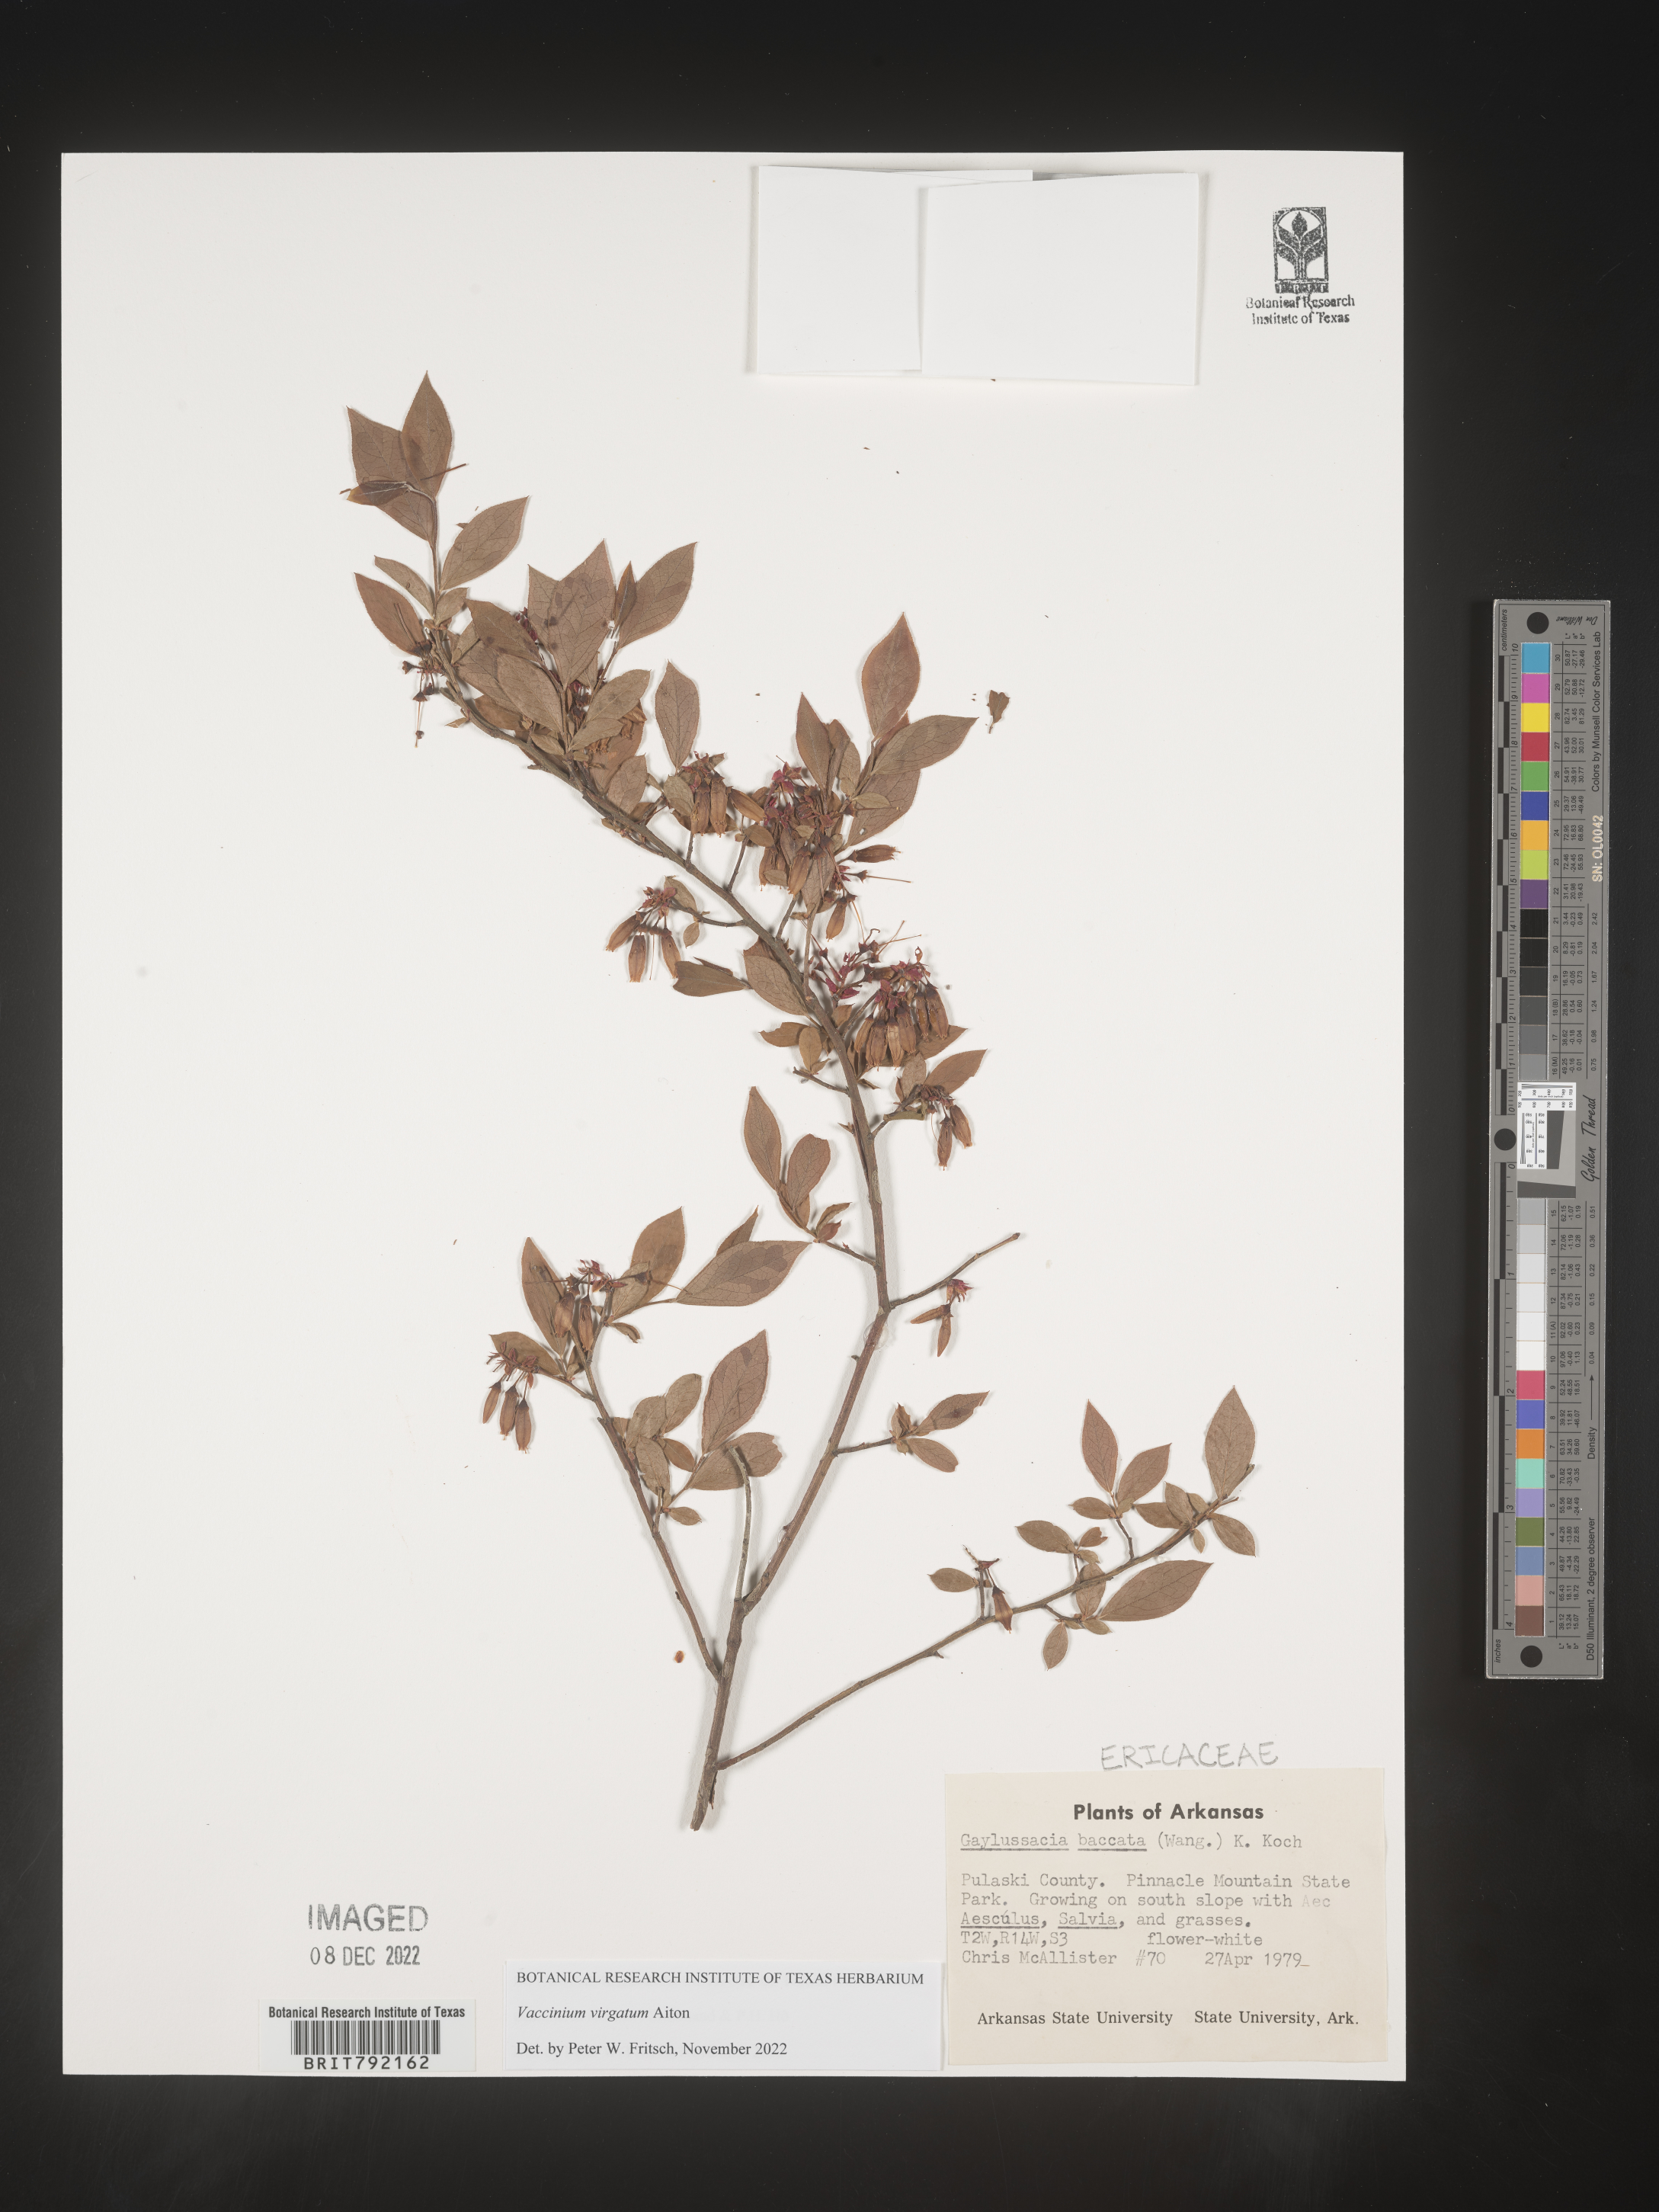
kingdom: Plantae
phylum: Tracheophyta
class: Magnoliopsida
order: Ericales
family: Ericaceae
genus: Vaccinium
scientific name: Vaccinium corymbosum
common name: Blueberry
